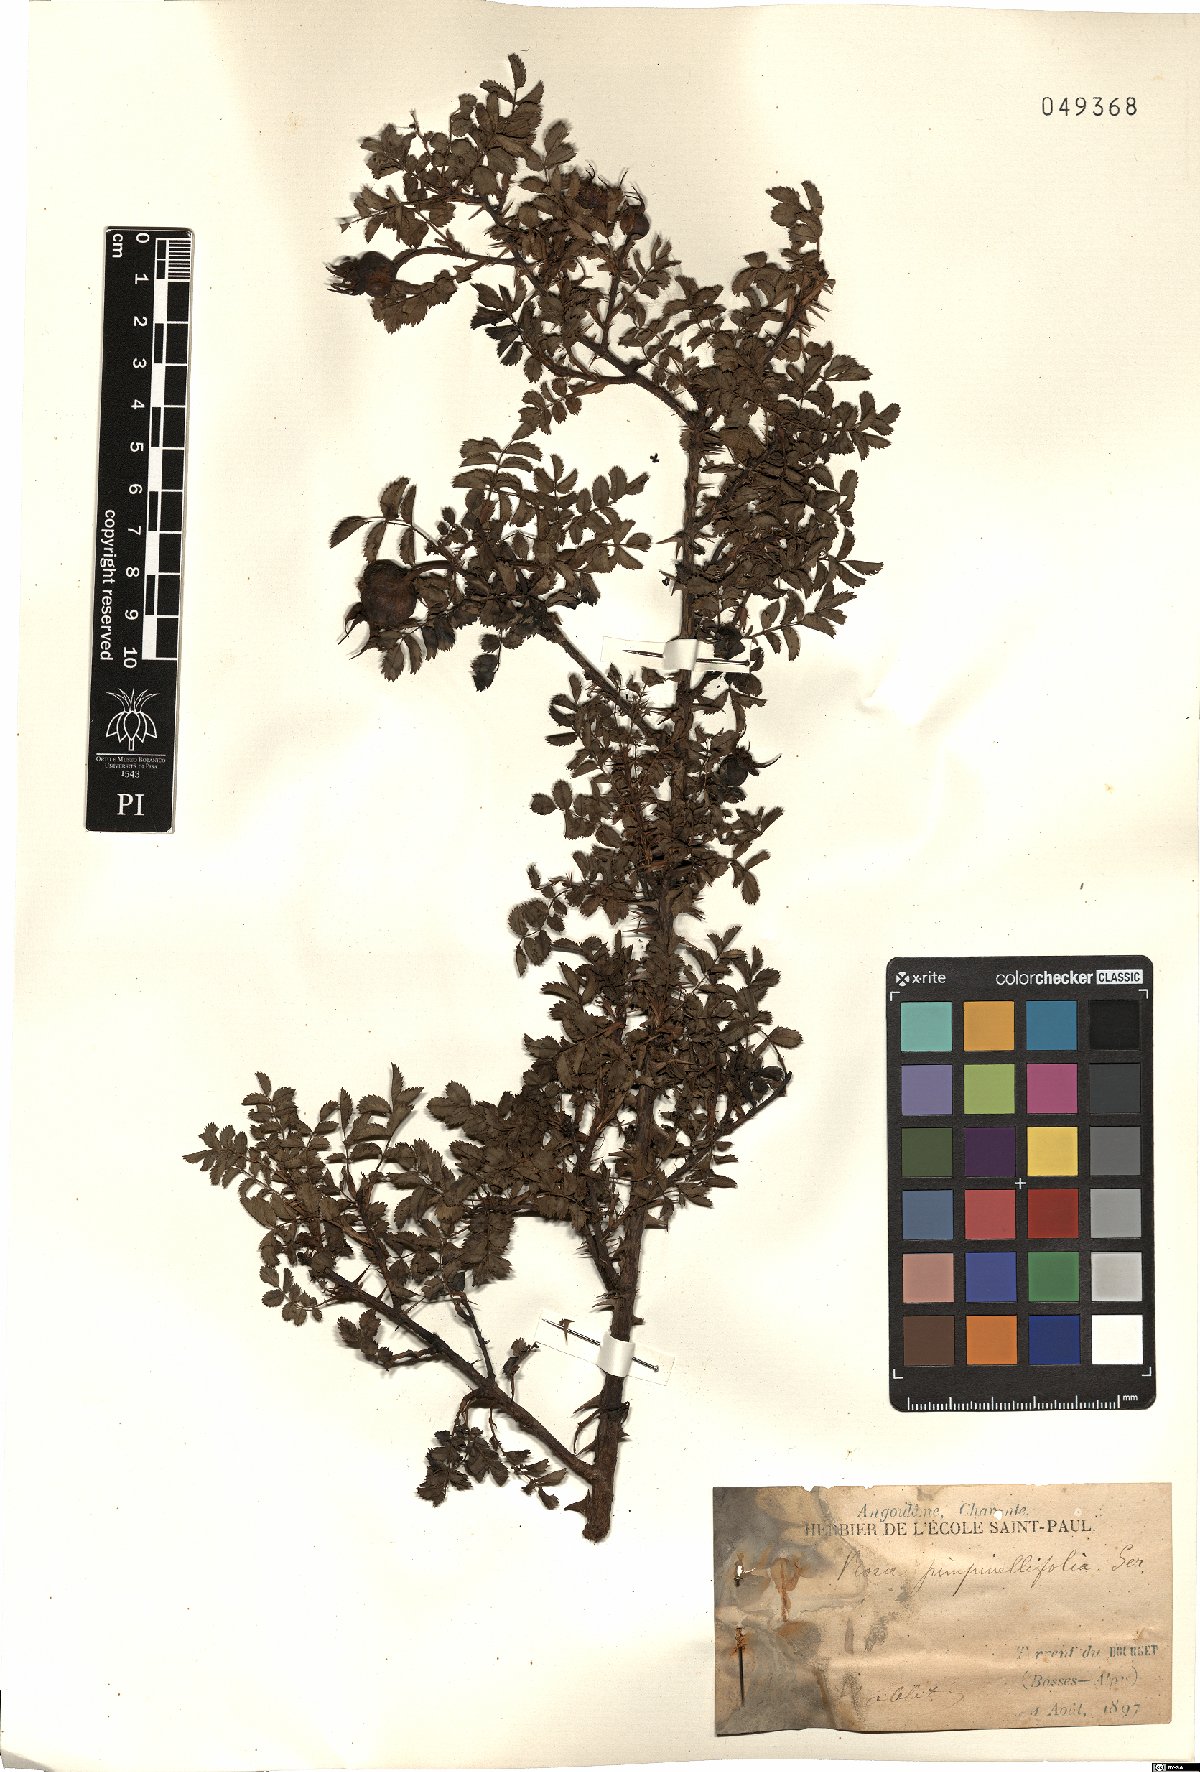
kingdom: Plantae
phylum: Tracheophyta
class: Magnoliopsida
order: Rosales
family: Rosaceae
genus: Rosa
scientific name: Rosa spinosissima
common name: Burnet rose
